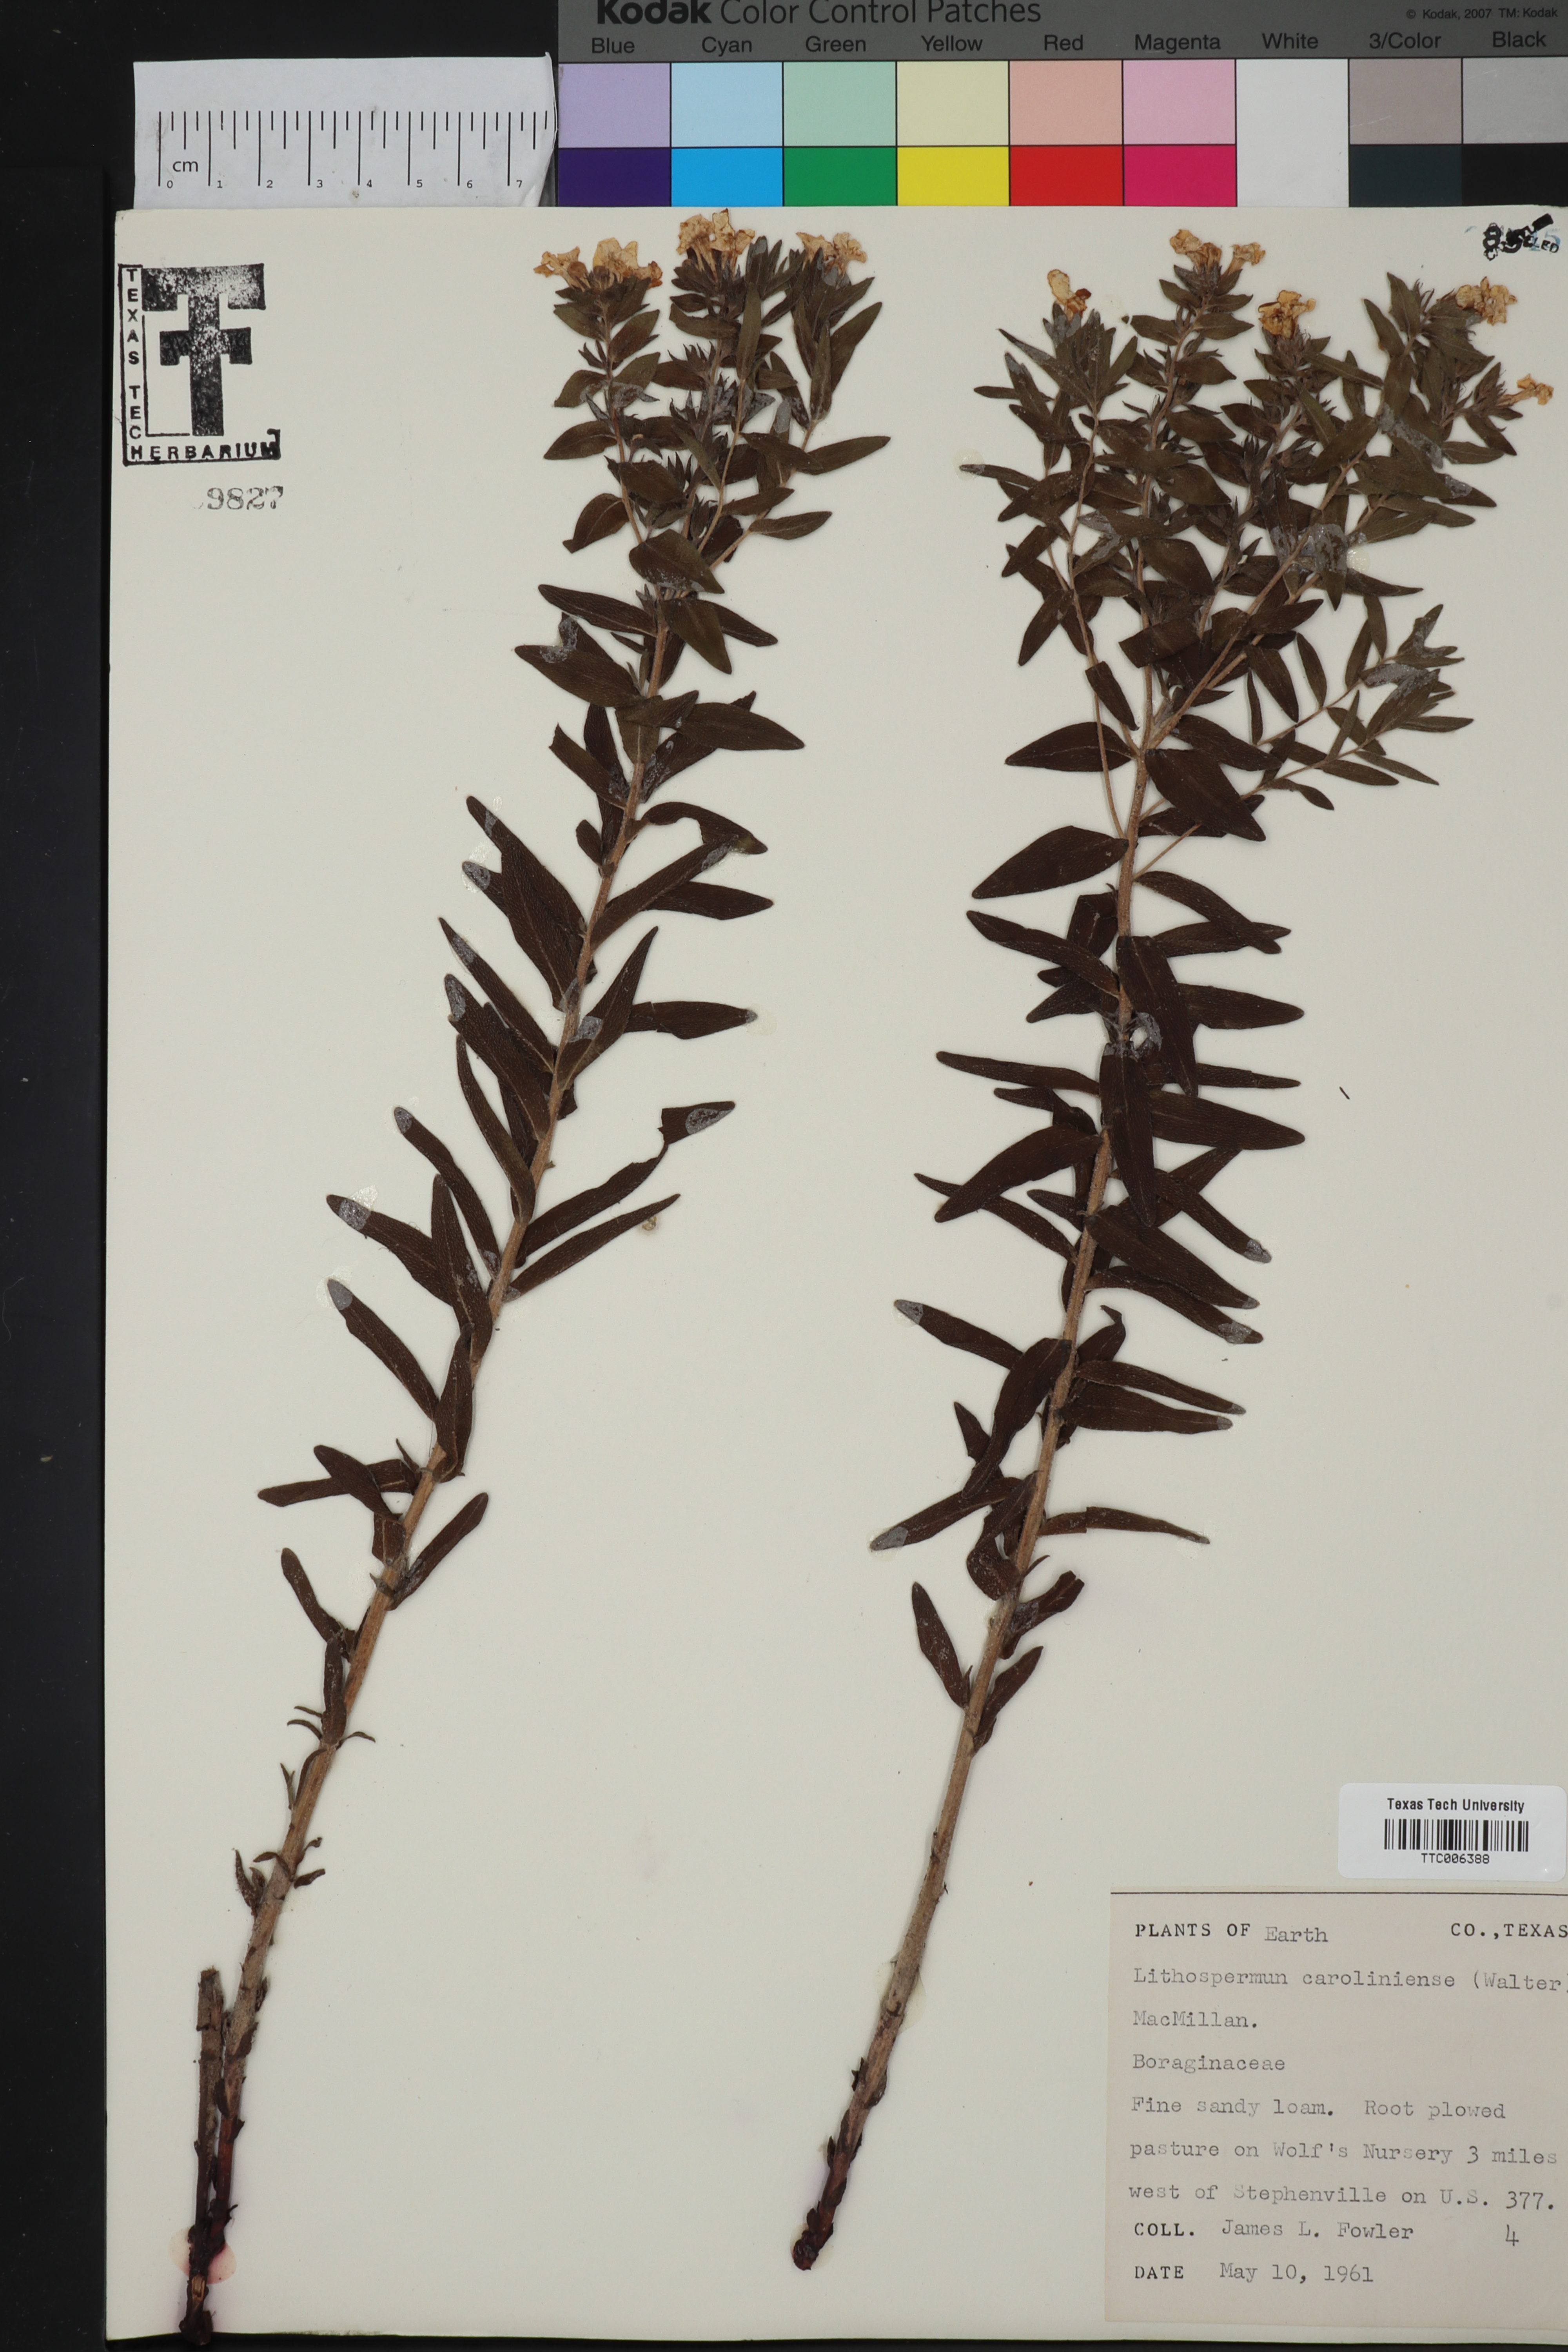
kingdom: Plantae
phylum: Tracheophyta
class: Magnoliopsida
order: Boraginales
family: Boraginaceae
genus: Lithospermum
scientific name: Lithospermum carolinense
